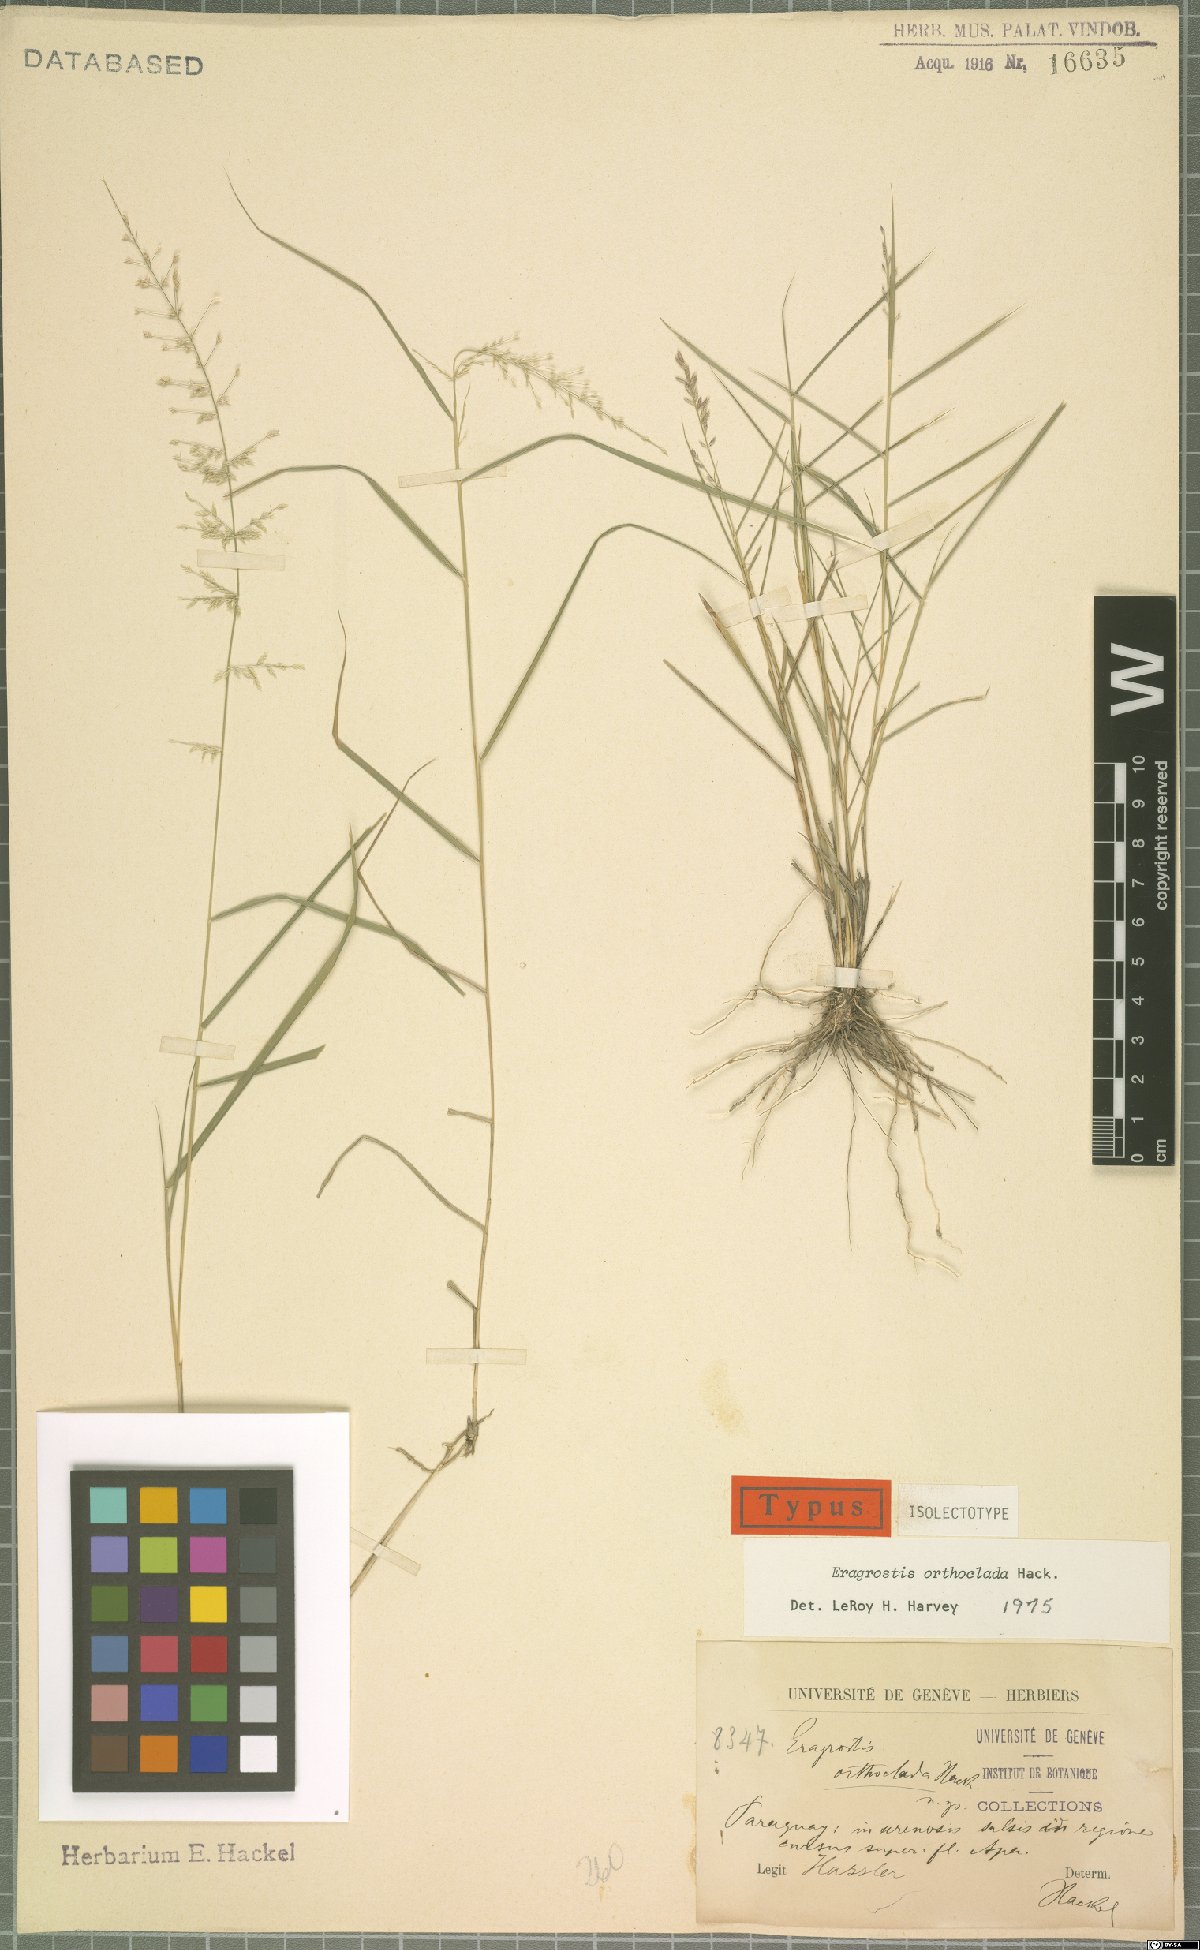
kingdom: Plantae
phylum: Tracheophyta
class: Liliopsida
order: Poales
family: Poaceae
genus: Eragrostis
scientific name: Eragrostis orthoclada
